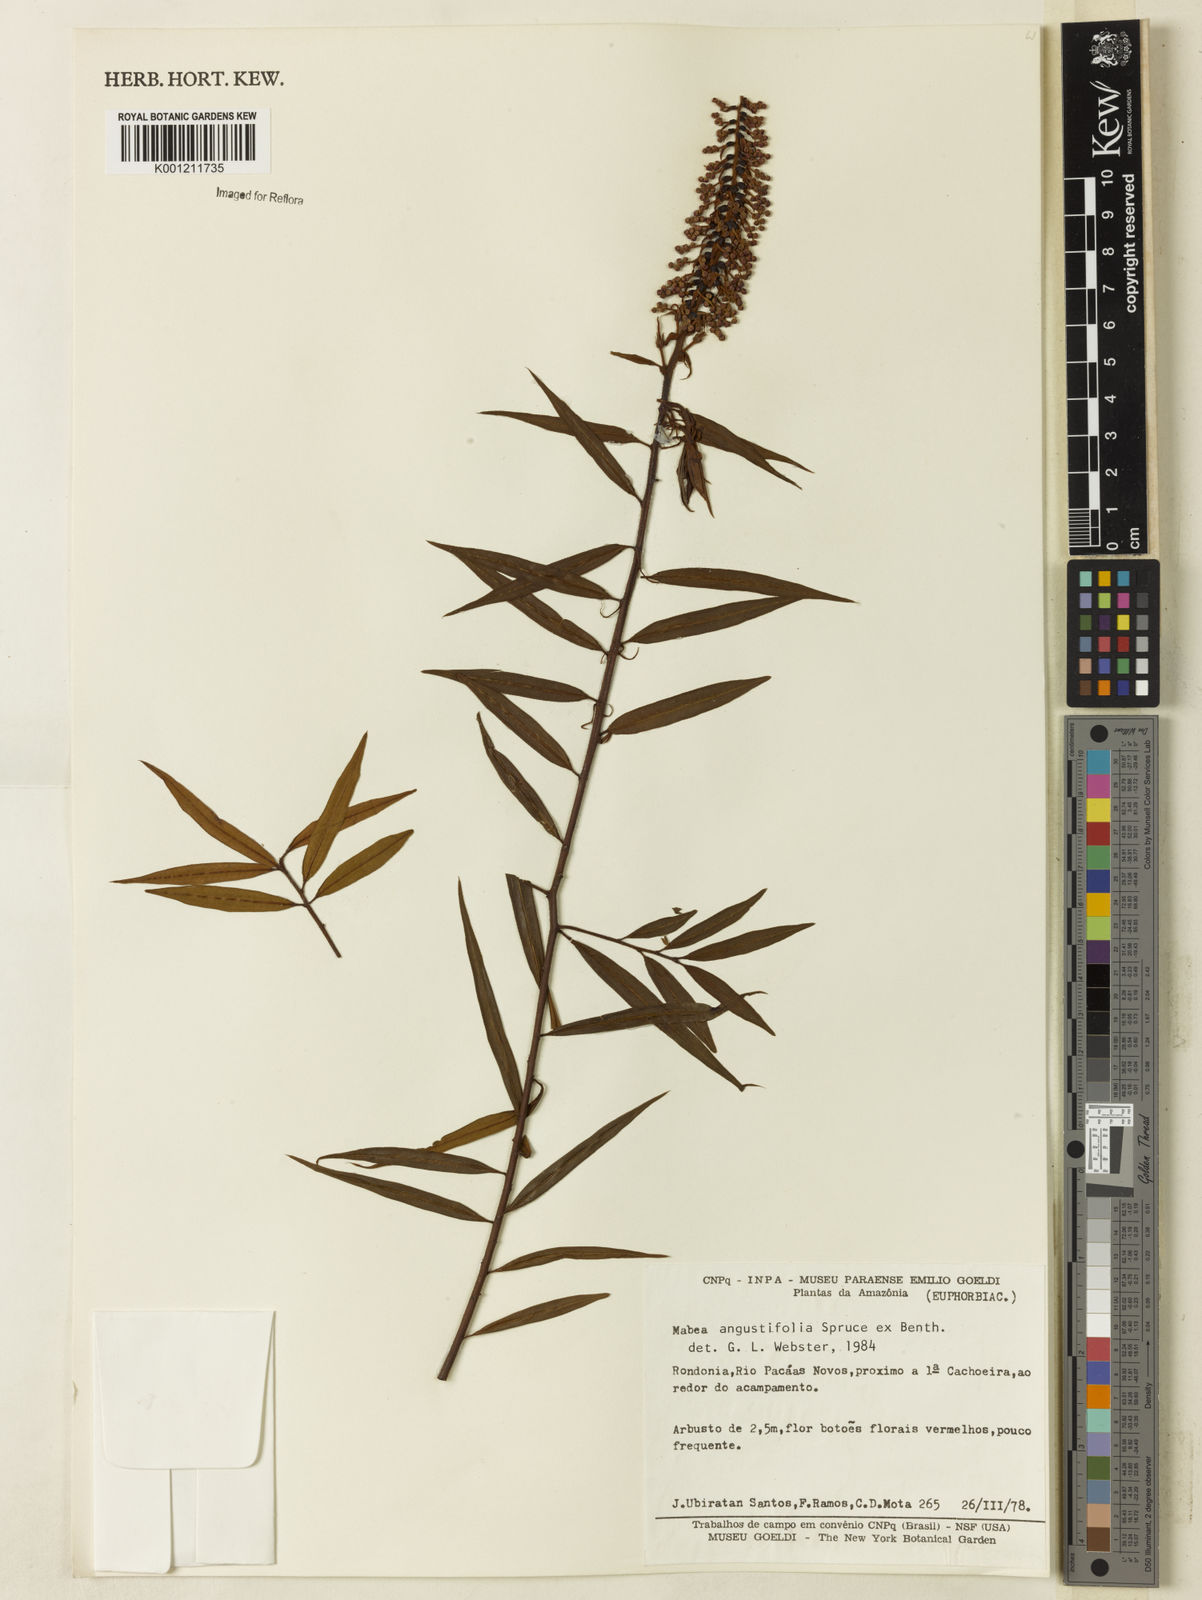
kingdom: Plantae
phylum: Tracheophyta
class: Magnoliopsida
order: Malpighiales
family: Euphorbiaceae
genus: Mabea
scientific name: Mabea angustifolia
